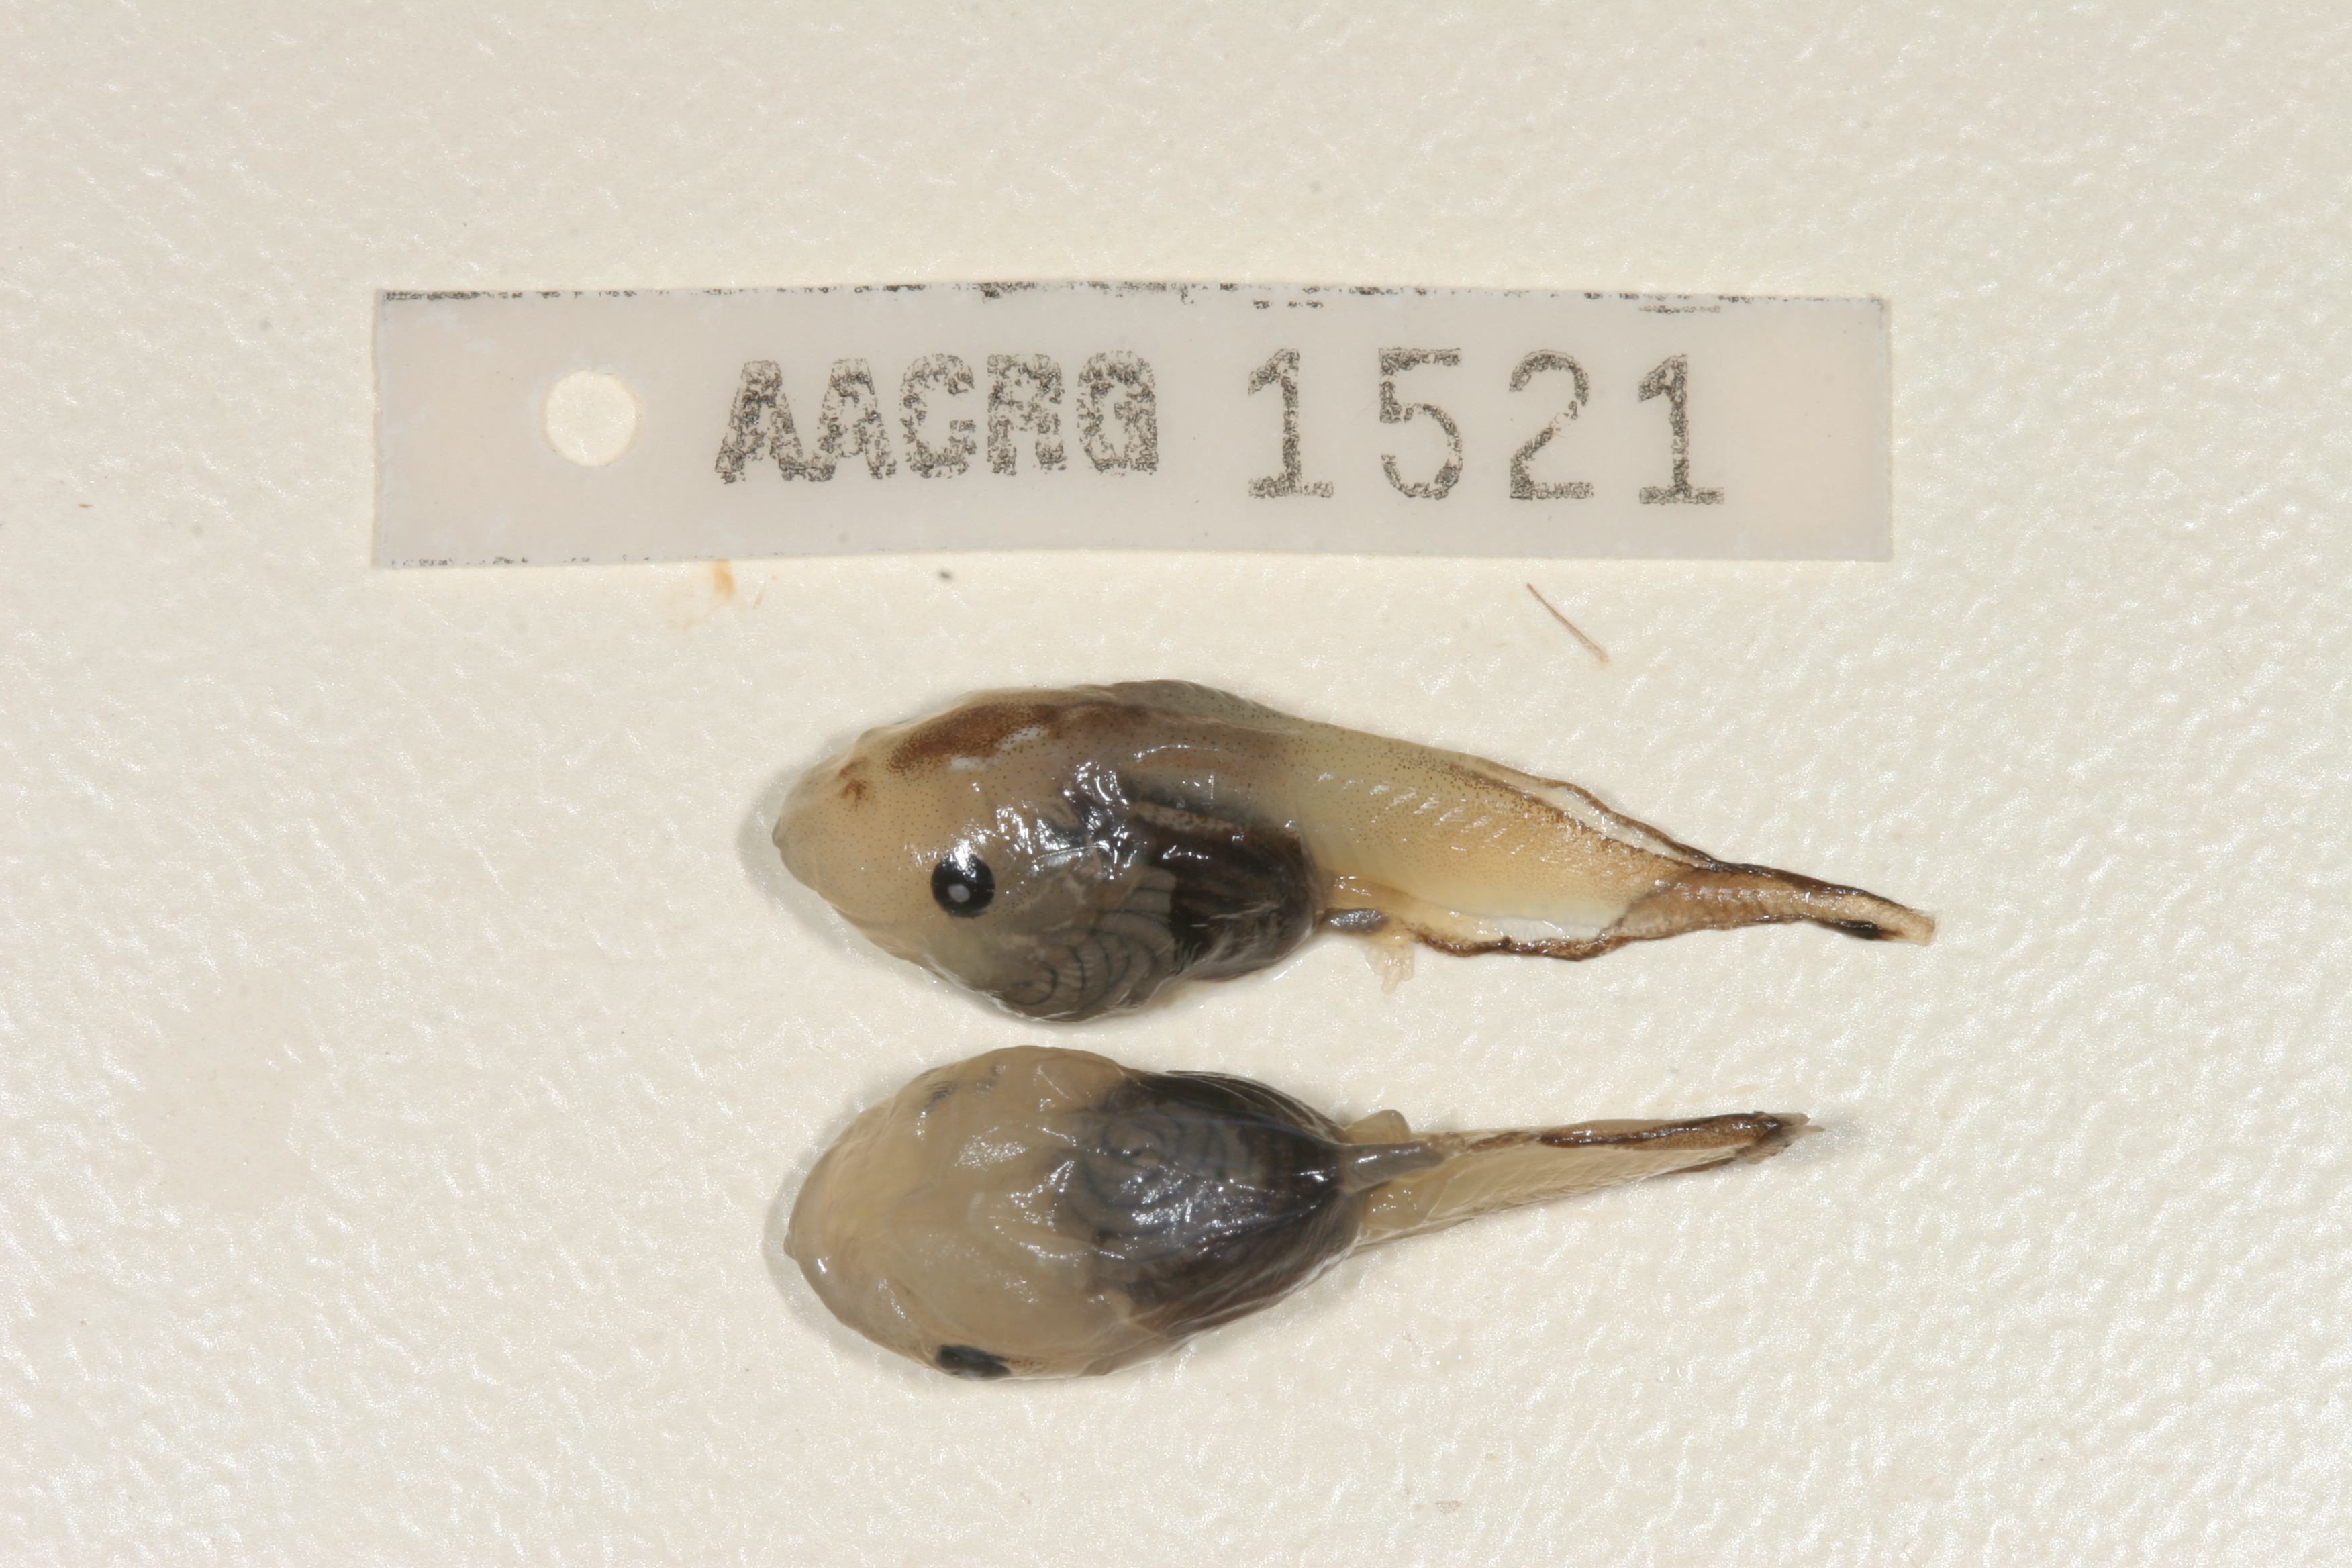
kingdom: Animalia
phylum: Chordata
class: Amphibia
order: Anura
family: Microhylidae
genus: Phrynomantis
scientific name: Phrynomantis bifasciatus
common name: Banded rubber frog
